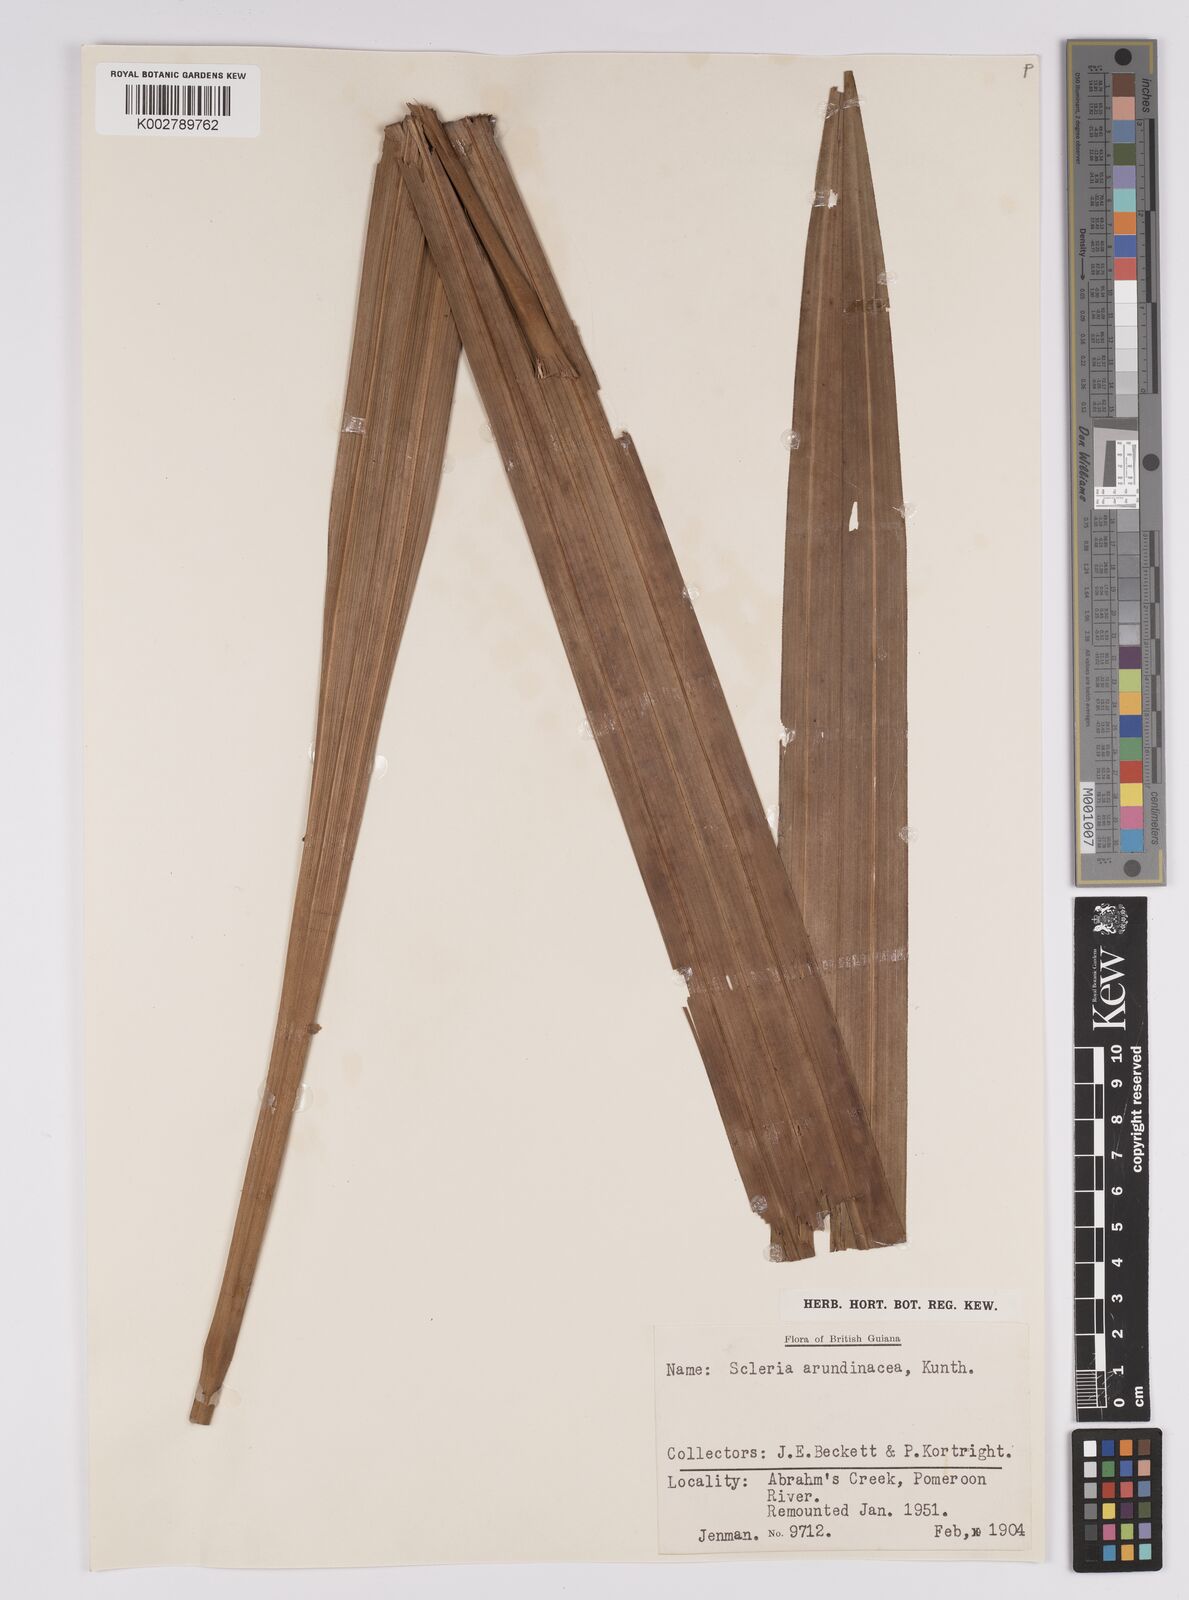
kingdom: Plantae
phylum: Tracheophyta
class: Liliopsida
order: Poales
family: Cyperaceae
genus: Scleria
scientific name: Scleria latifolia
